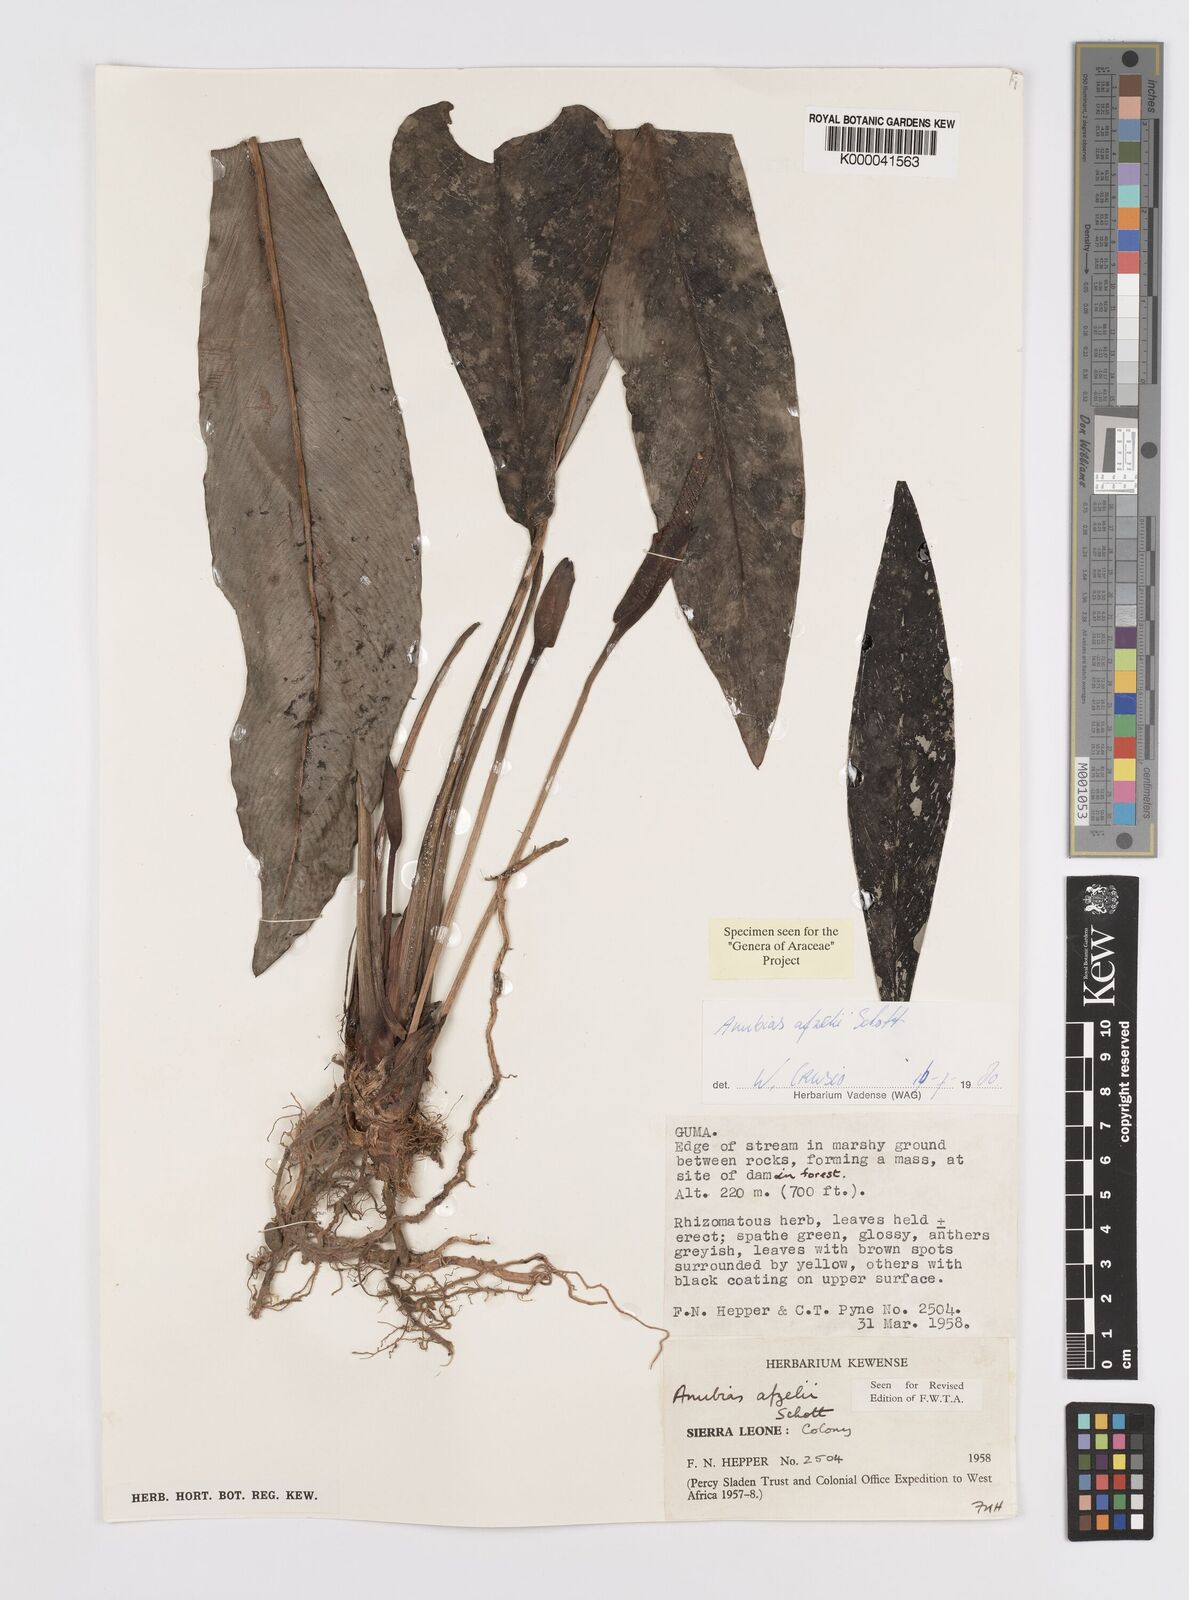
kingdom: Plantae
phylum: Tracheophyta
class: Liliopsida
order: Alismatales
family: Araceae
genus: Anubias
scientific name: Anubias afzelii
